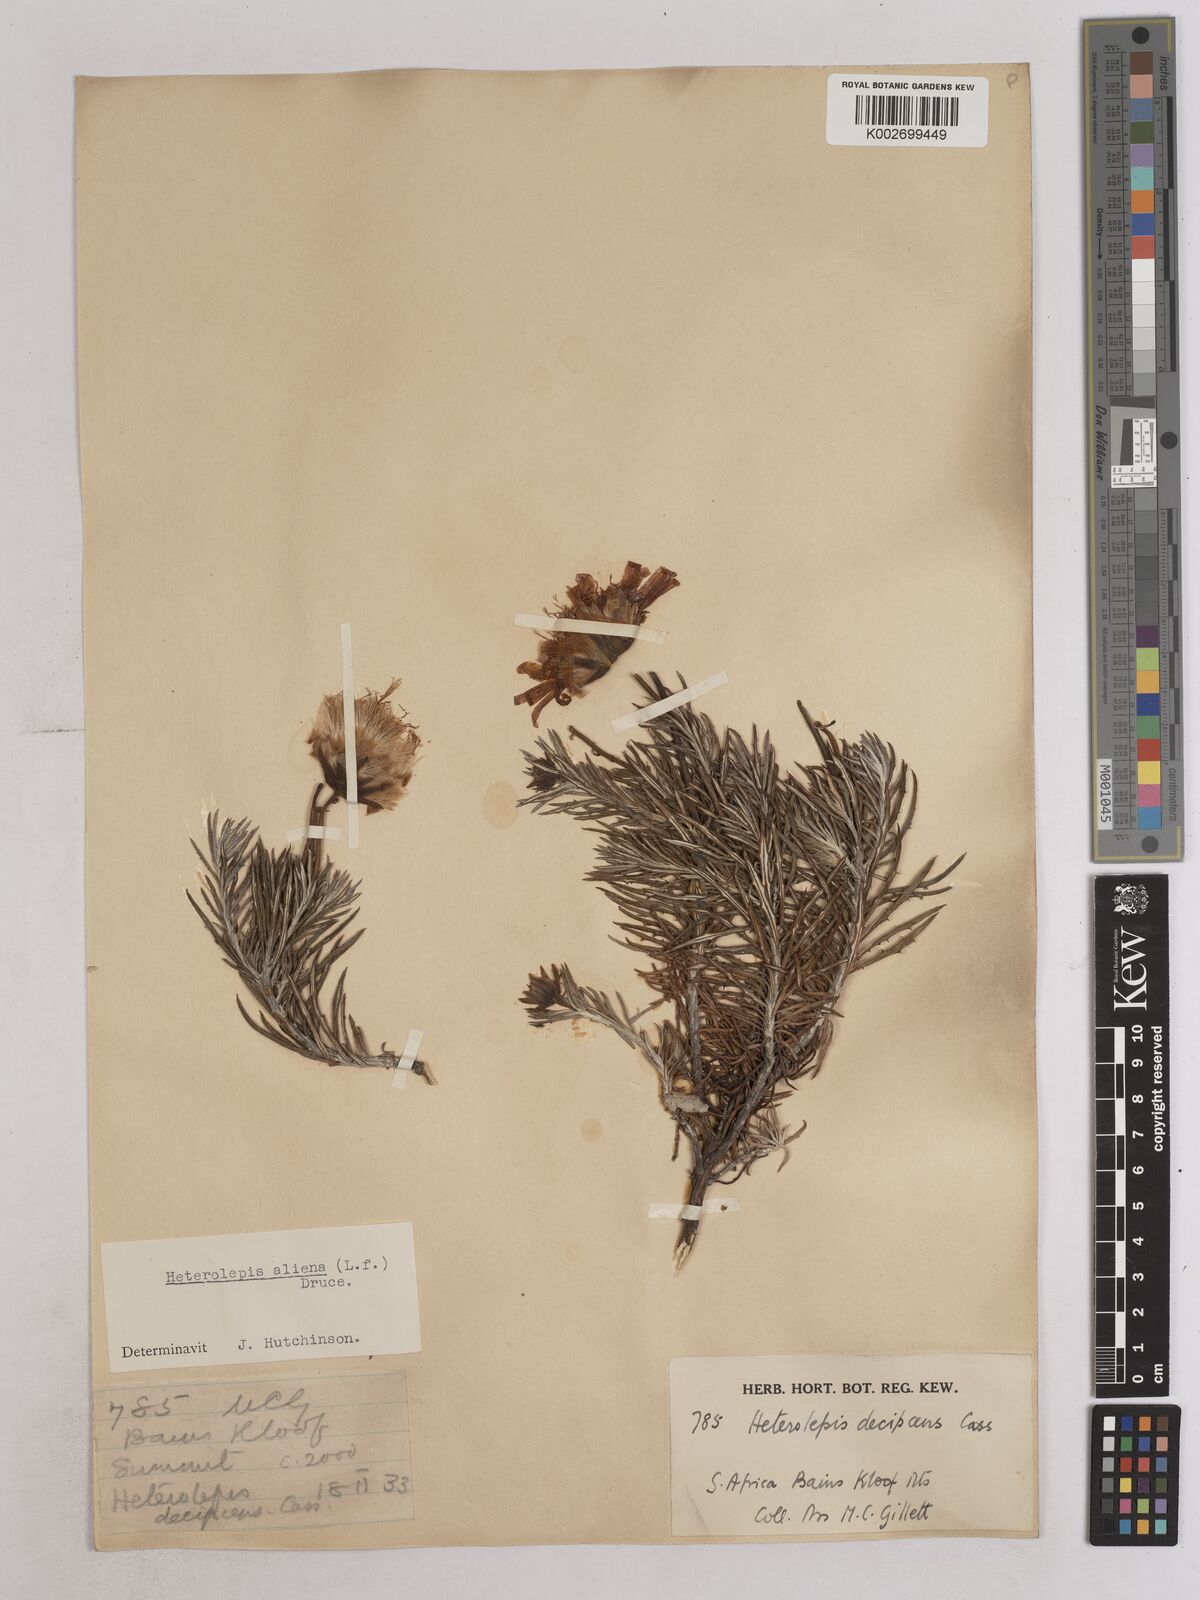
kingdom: Plantae
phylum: Tracheophyta
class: Magnoliopsida
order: Asterales
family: Asteraceae
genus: Heterolepis
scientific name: Heterolepis aliena
